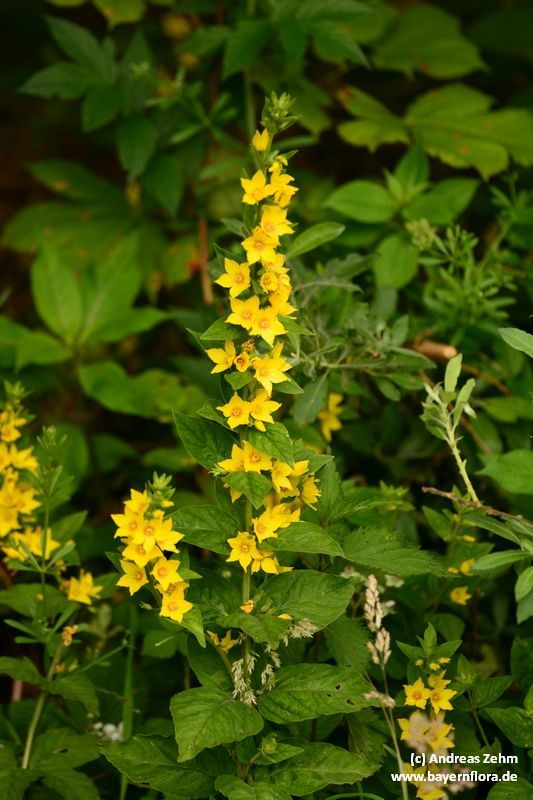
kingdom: Plantae
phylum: Tracheophyta
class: Magnoliopsida
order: Ericales
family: Primulaceae
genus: Lysimachia
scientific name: Lysimachia punctata
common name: Dotted loosestrife
